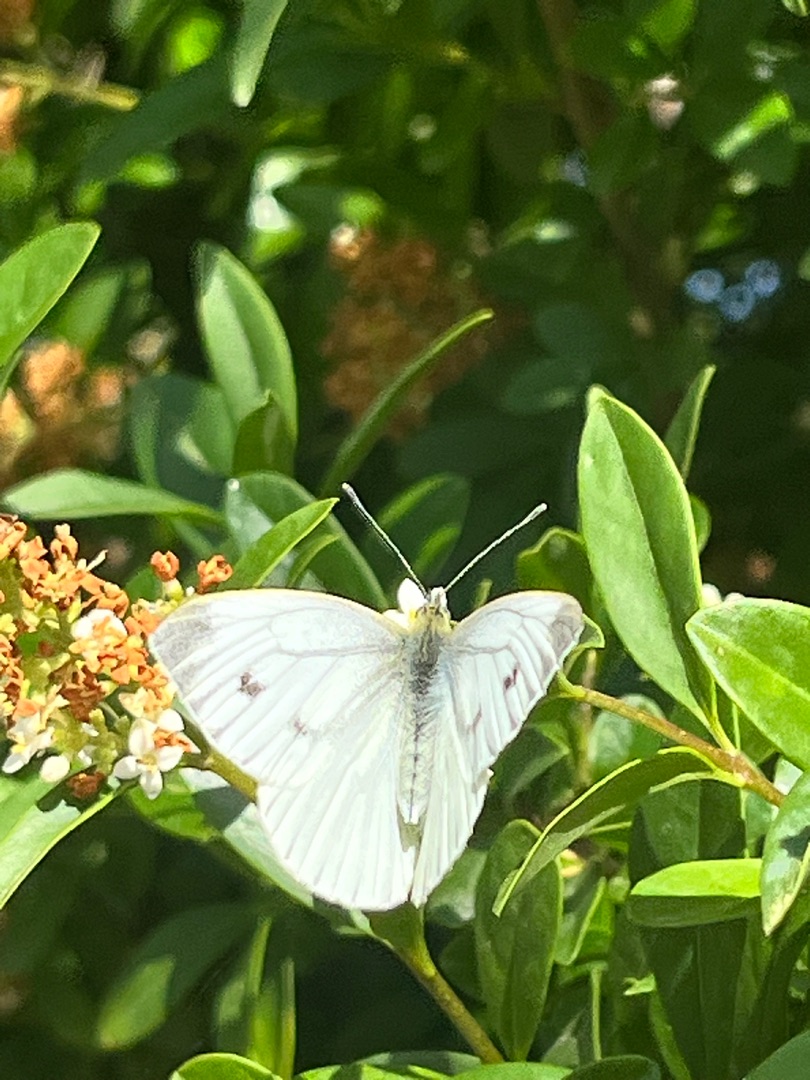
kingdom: Animalia
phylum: Arthropoda
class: Insecta
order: Lepidoptera
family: Pieridae
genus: Pieris
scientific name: Pieris napi
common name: Grønåret kålsommerfugl
